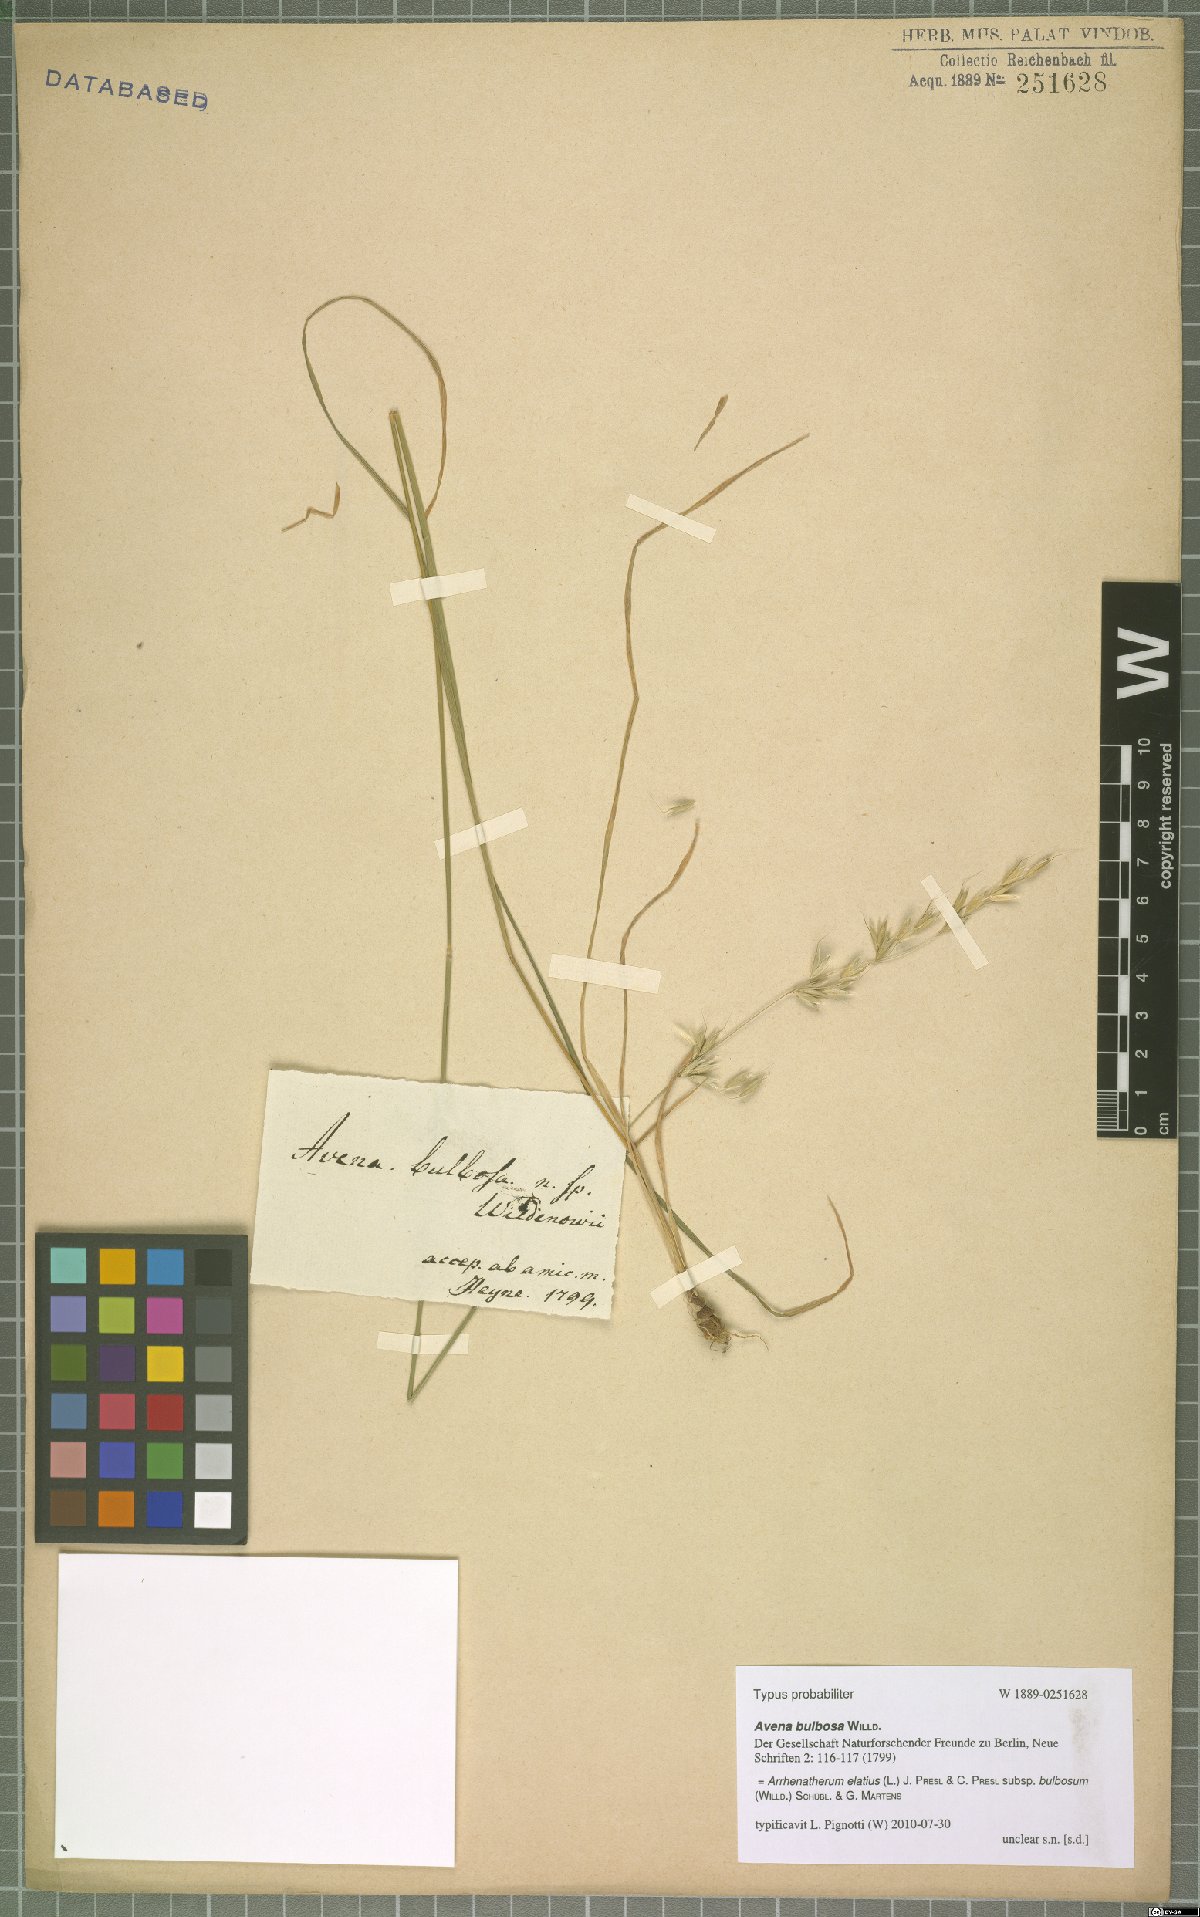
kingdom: Plantae
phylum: Tracheophyta
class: Liliopsida
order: Poales
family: Poaceae
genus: Arrhenatherum
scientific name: Arrhenatherum elatius
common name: Tall oatgrass
